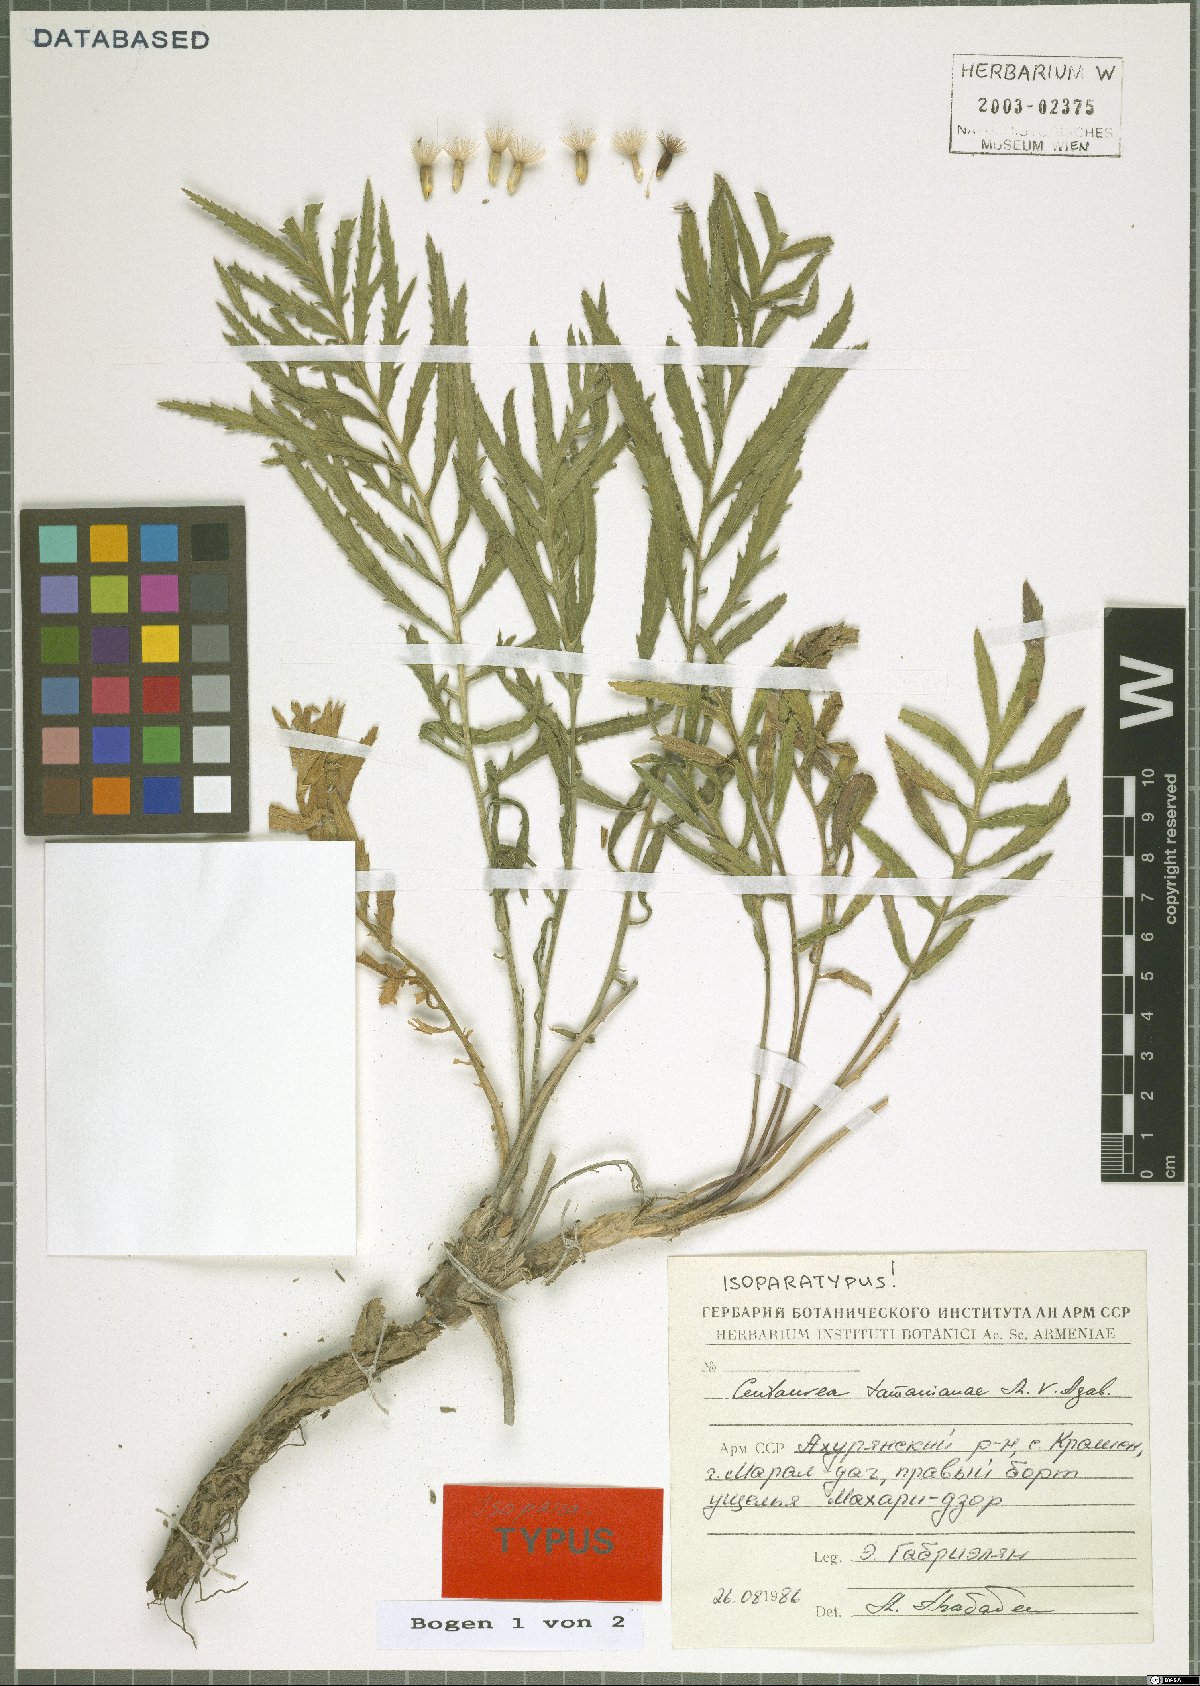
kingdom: Plantae
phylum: Tracheophyta
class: Magnoliopsida
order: Asterales
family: Asteraceae
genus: Rhaponticoides
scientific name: Rhaponticoides tamanianae
